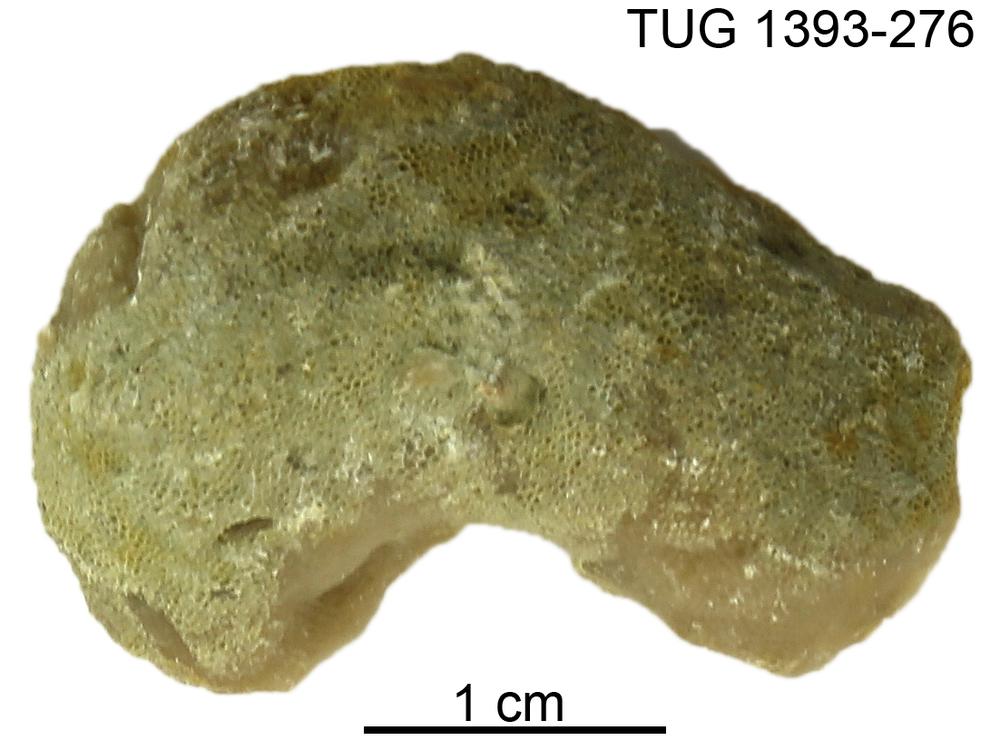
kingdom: Animalia
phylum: Bryozoa
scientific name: Bryozoa
